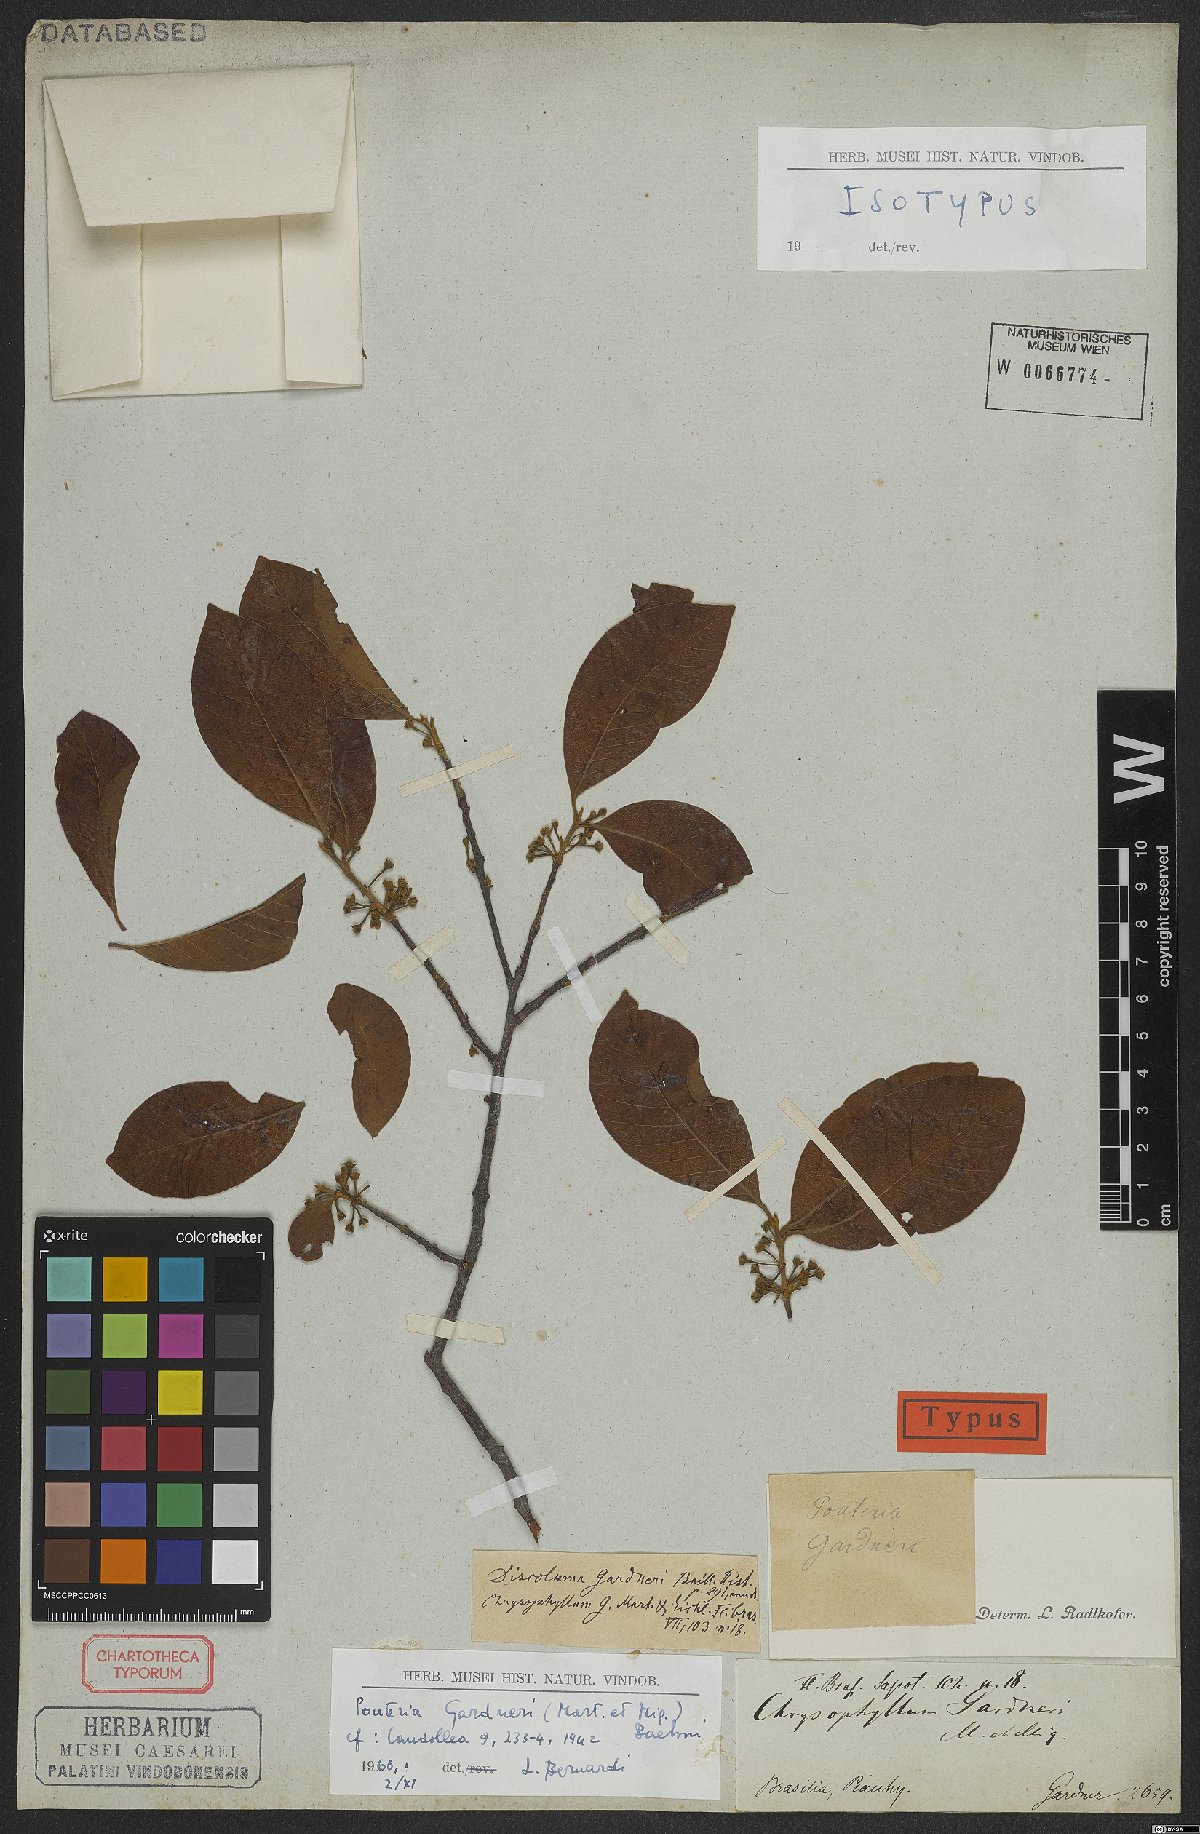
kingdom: Plantae
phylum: Tracheophyta
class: Magnoliopsida
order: Ericales
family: Sapotaceae
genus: Pouteria
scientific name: Pouteria gardneri
